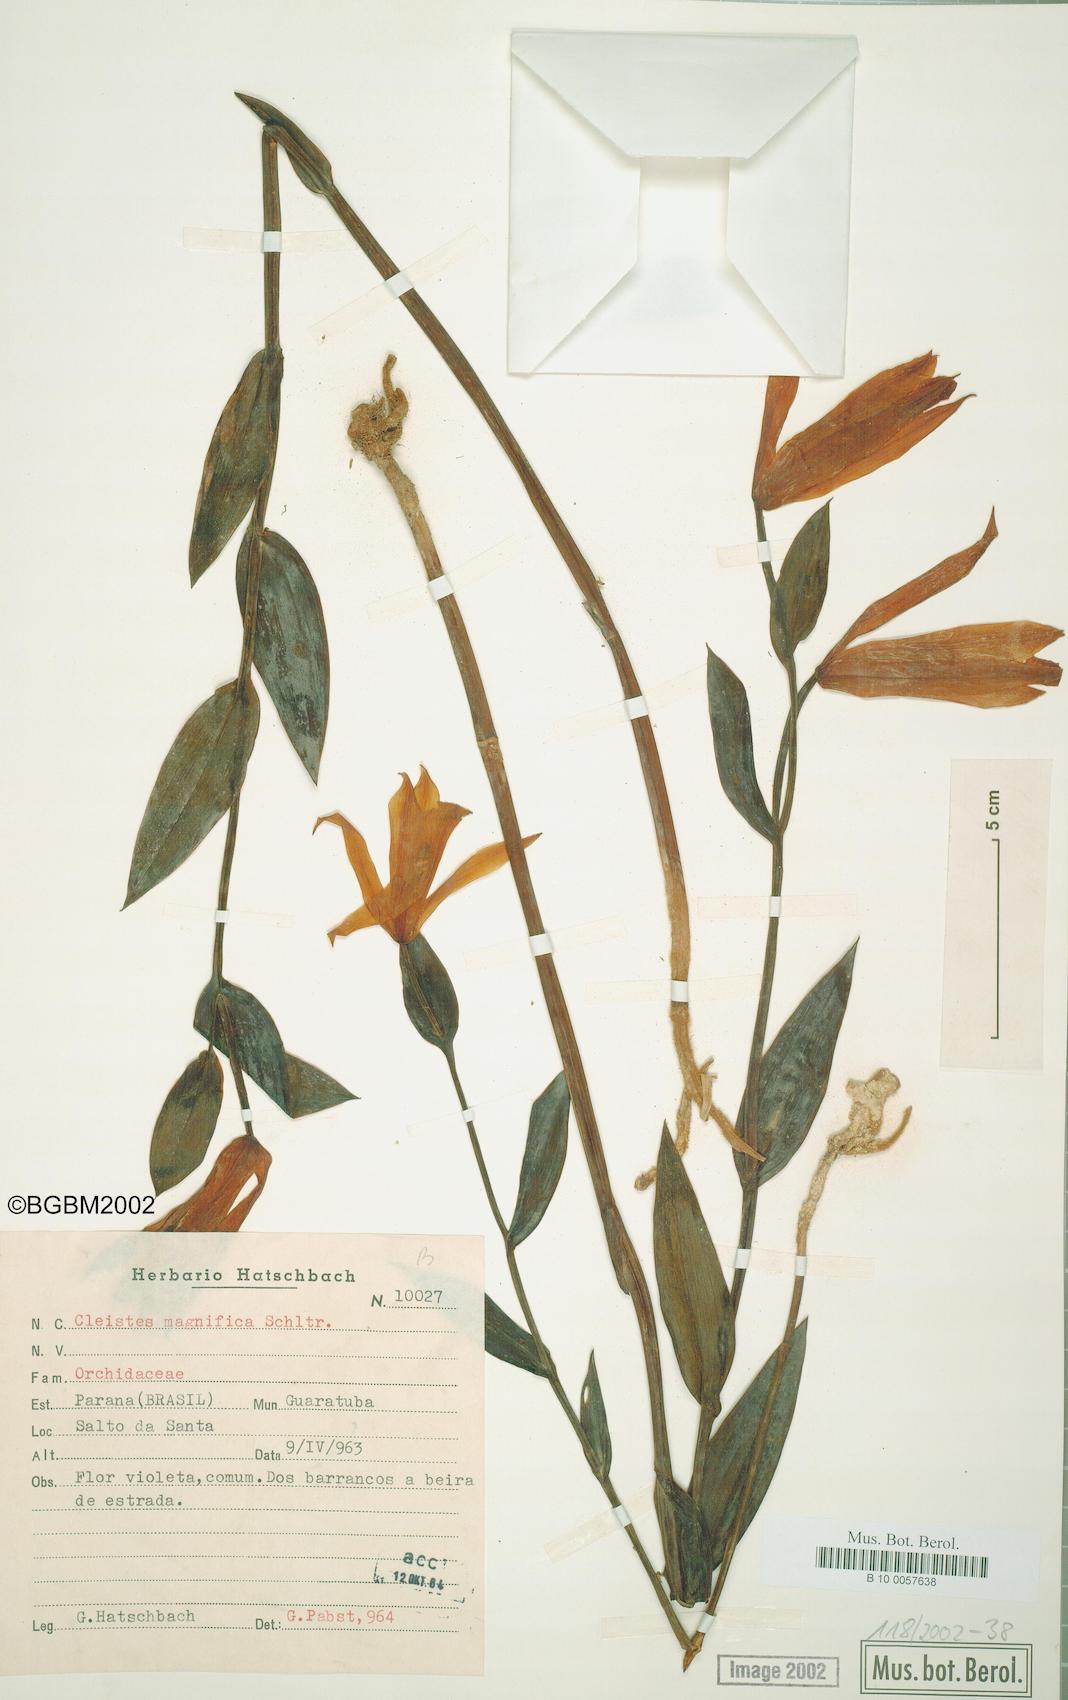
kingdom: Plantae
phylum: Tracheophyta
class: Liliopsida
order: Asparagales
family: Orchidaceae
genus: Cleistes
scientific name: Cleistes magnifica
